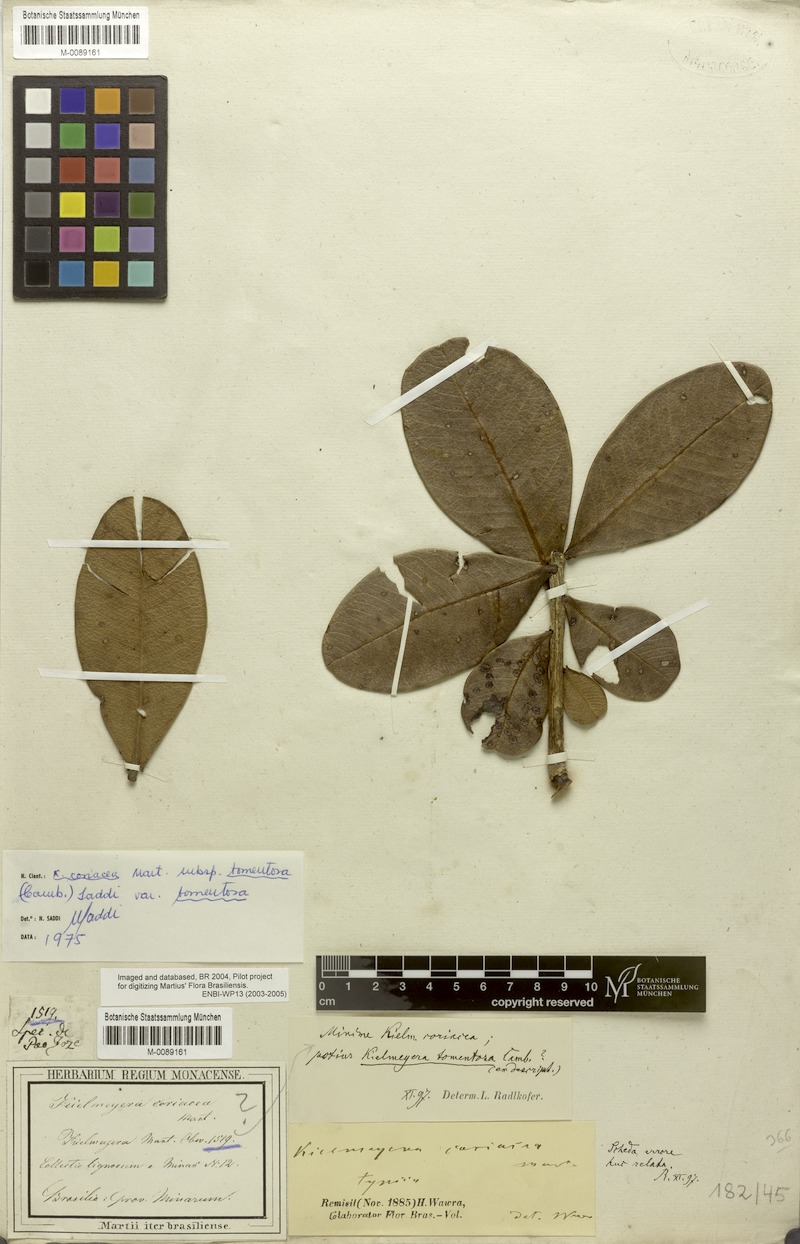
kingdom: Plantae
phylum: Tracheophyta
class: Magnoliopsida
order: Malpighiales
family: Calophyllaceae
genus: Kielmeyera
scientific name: Kielmeyera coriacea
